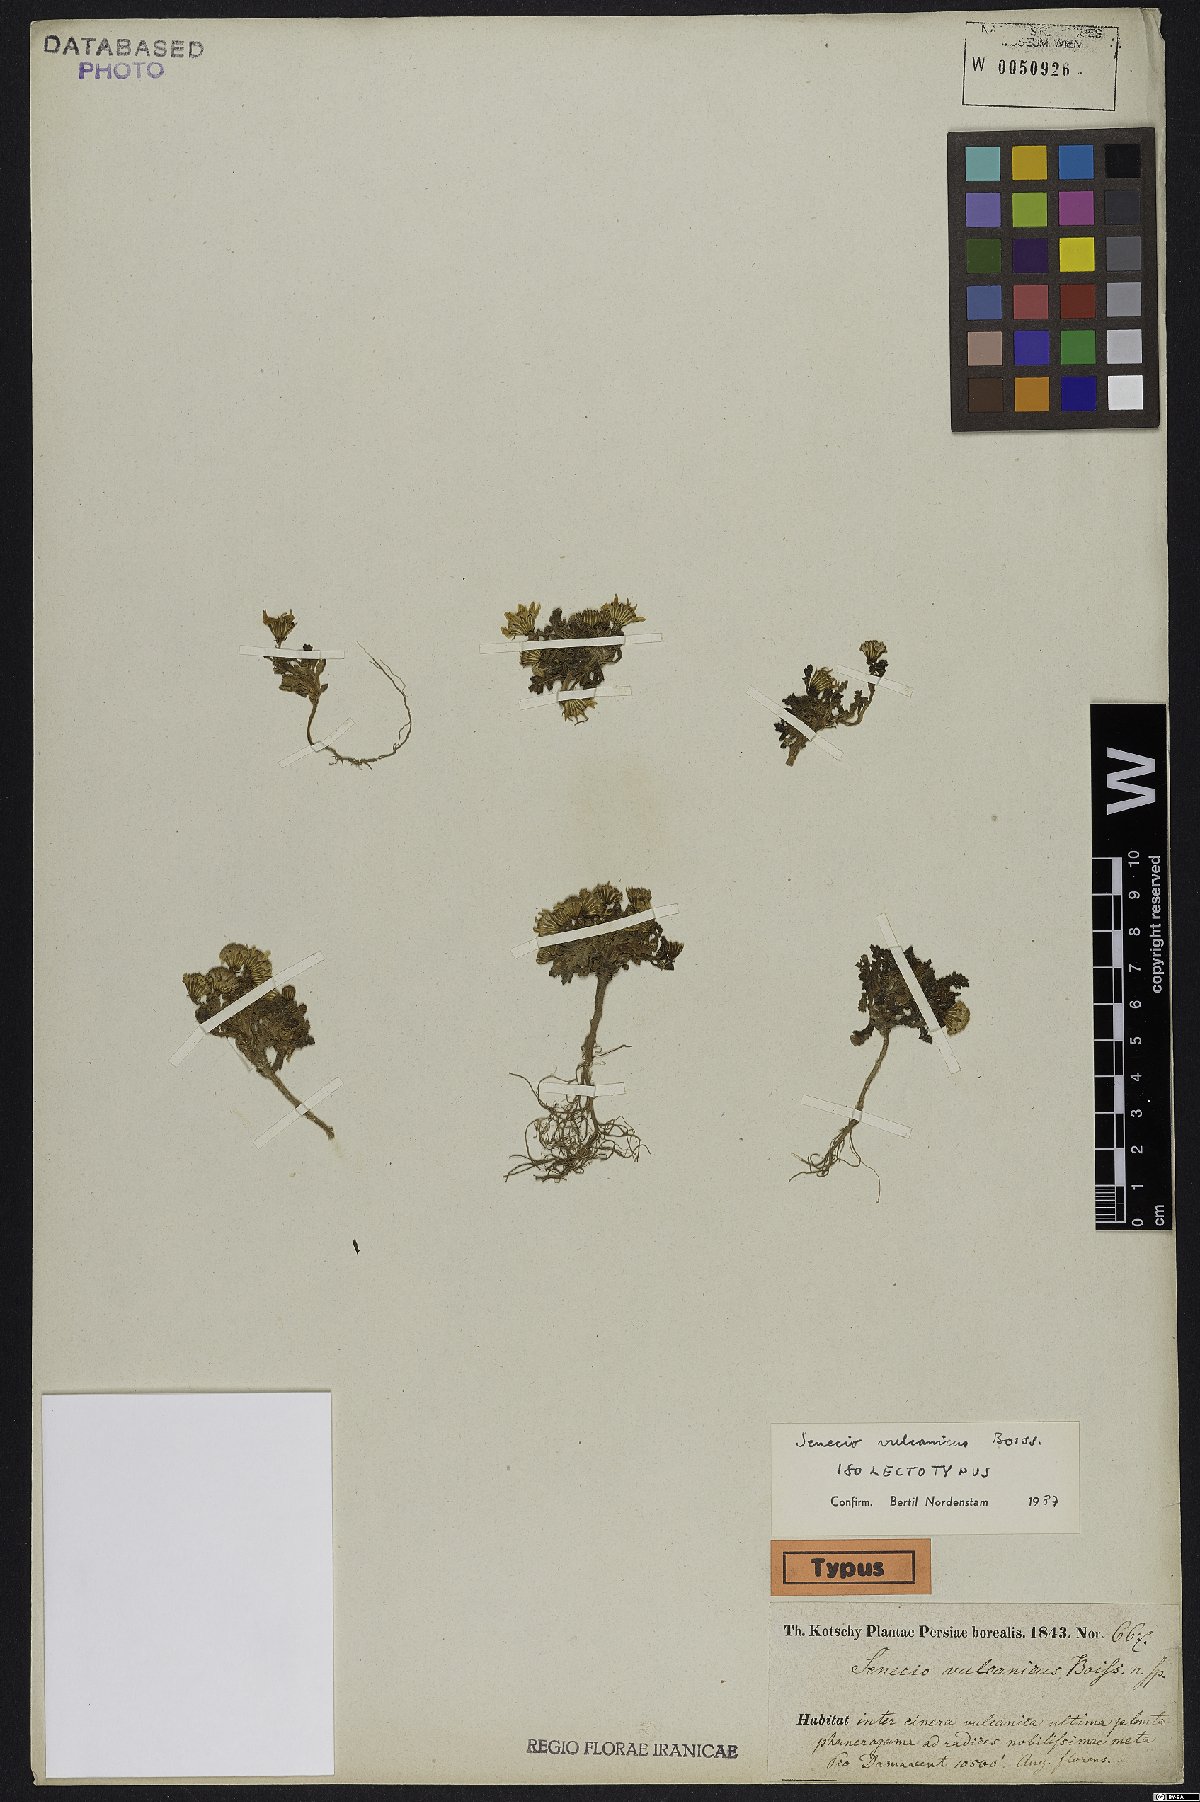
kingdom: Plantae
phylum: Tracheophyta
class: Magnoliopsida
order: Asterales
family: Asteraceae
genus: Senecio
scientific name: Senecio vulcanicus
